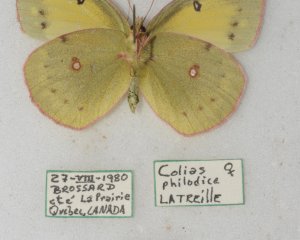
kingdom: Animalia
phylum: Arthropoda
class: Insecta
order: Lepidoptera
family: Pieridae
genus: Colias
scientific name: Colias philodice
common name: Clouded Sulphur
